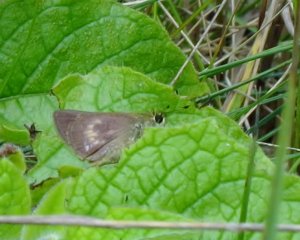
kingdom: Animalia
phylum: Arthropoda
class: Insecta
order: Lepidoptera
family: Hesperiidae
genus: Polites
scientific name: Polites egeremet
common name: Northern Broken-Dash
